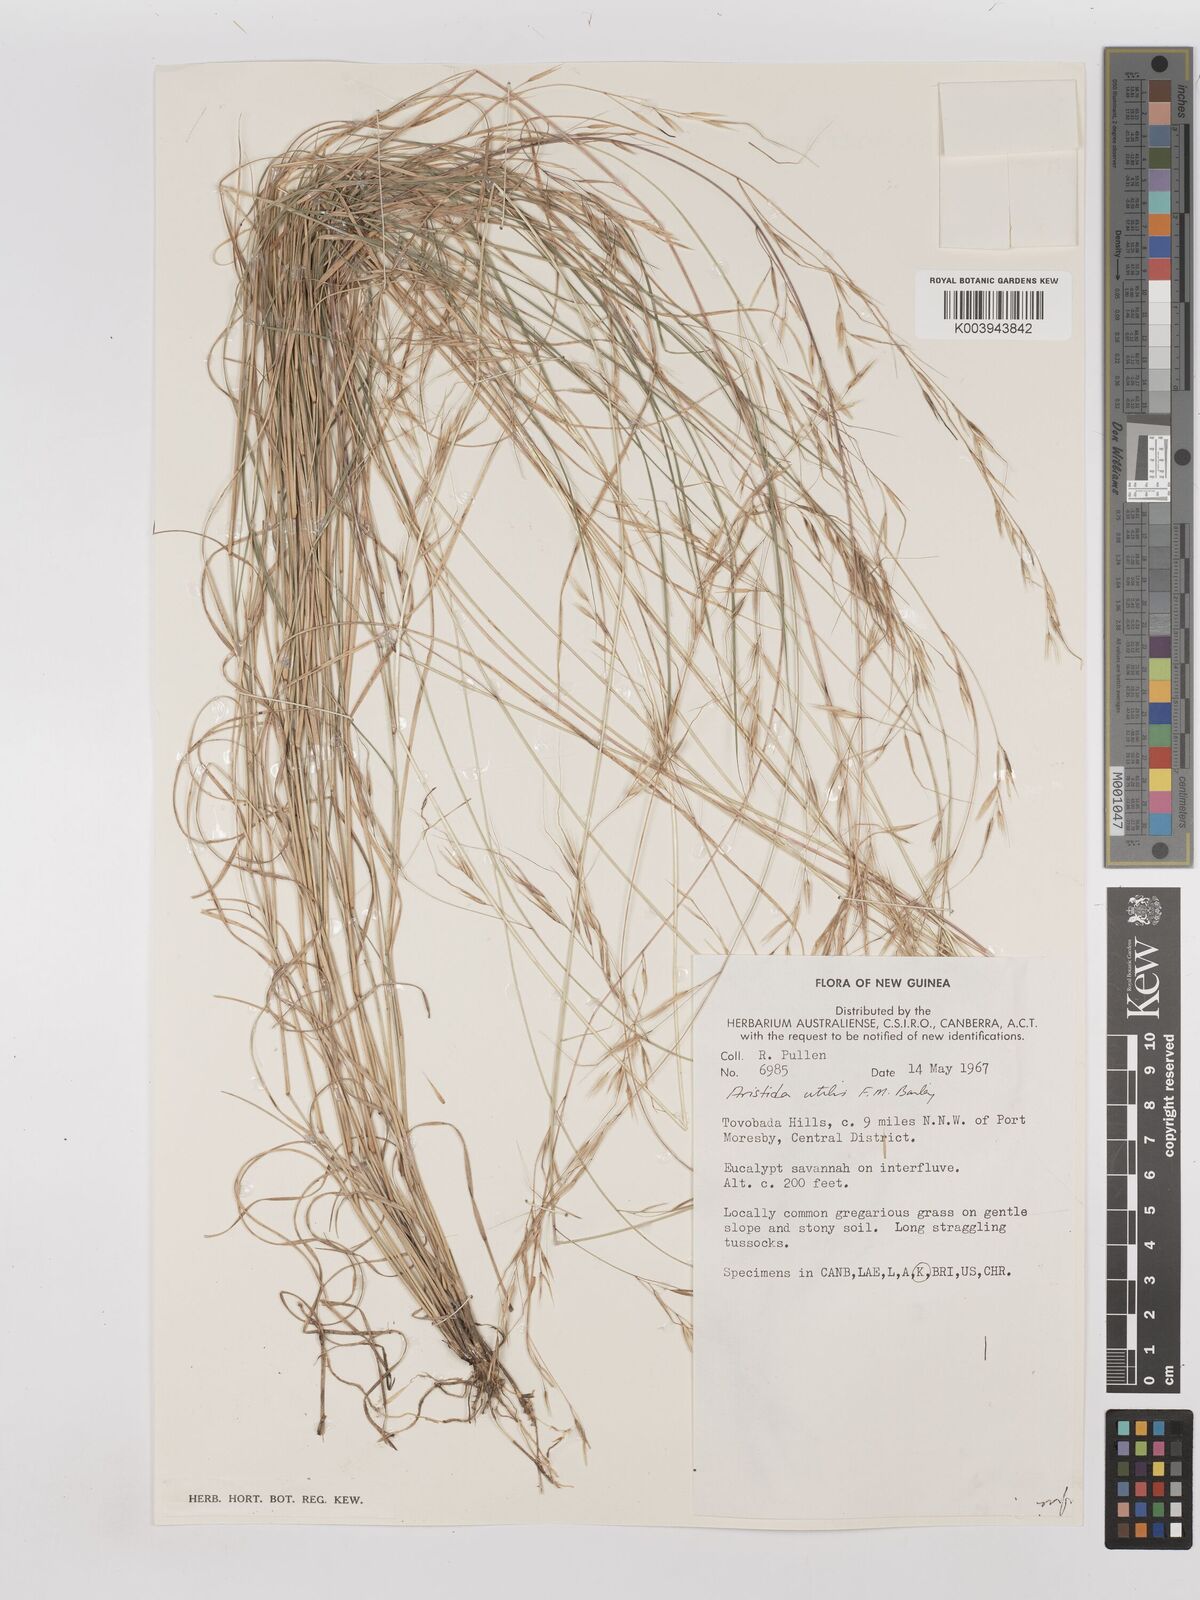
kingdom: Plantae
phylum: Tracheophyta
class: Liliopsida
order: Poales
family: Poaceae
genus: Aristida
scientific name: Aristida utilis
